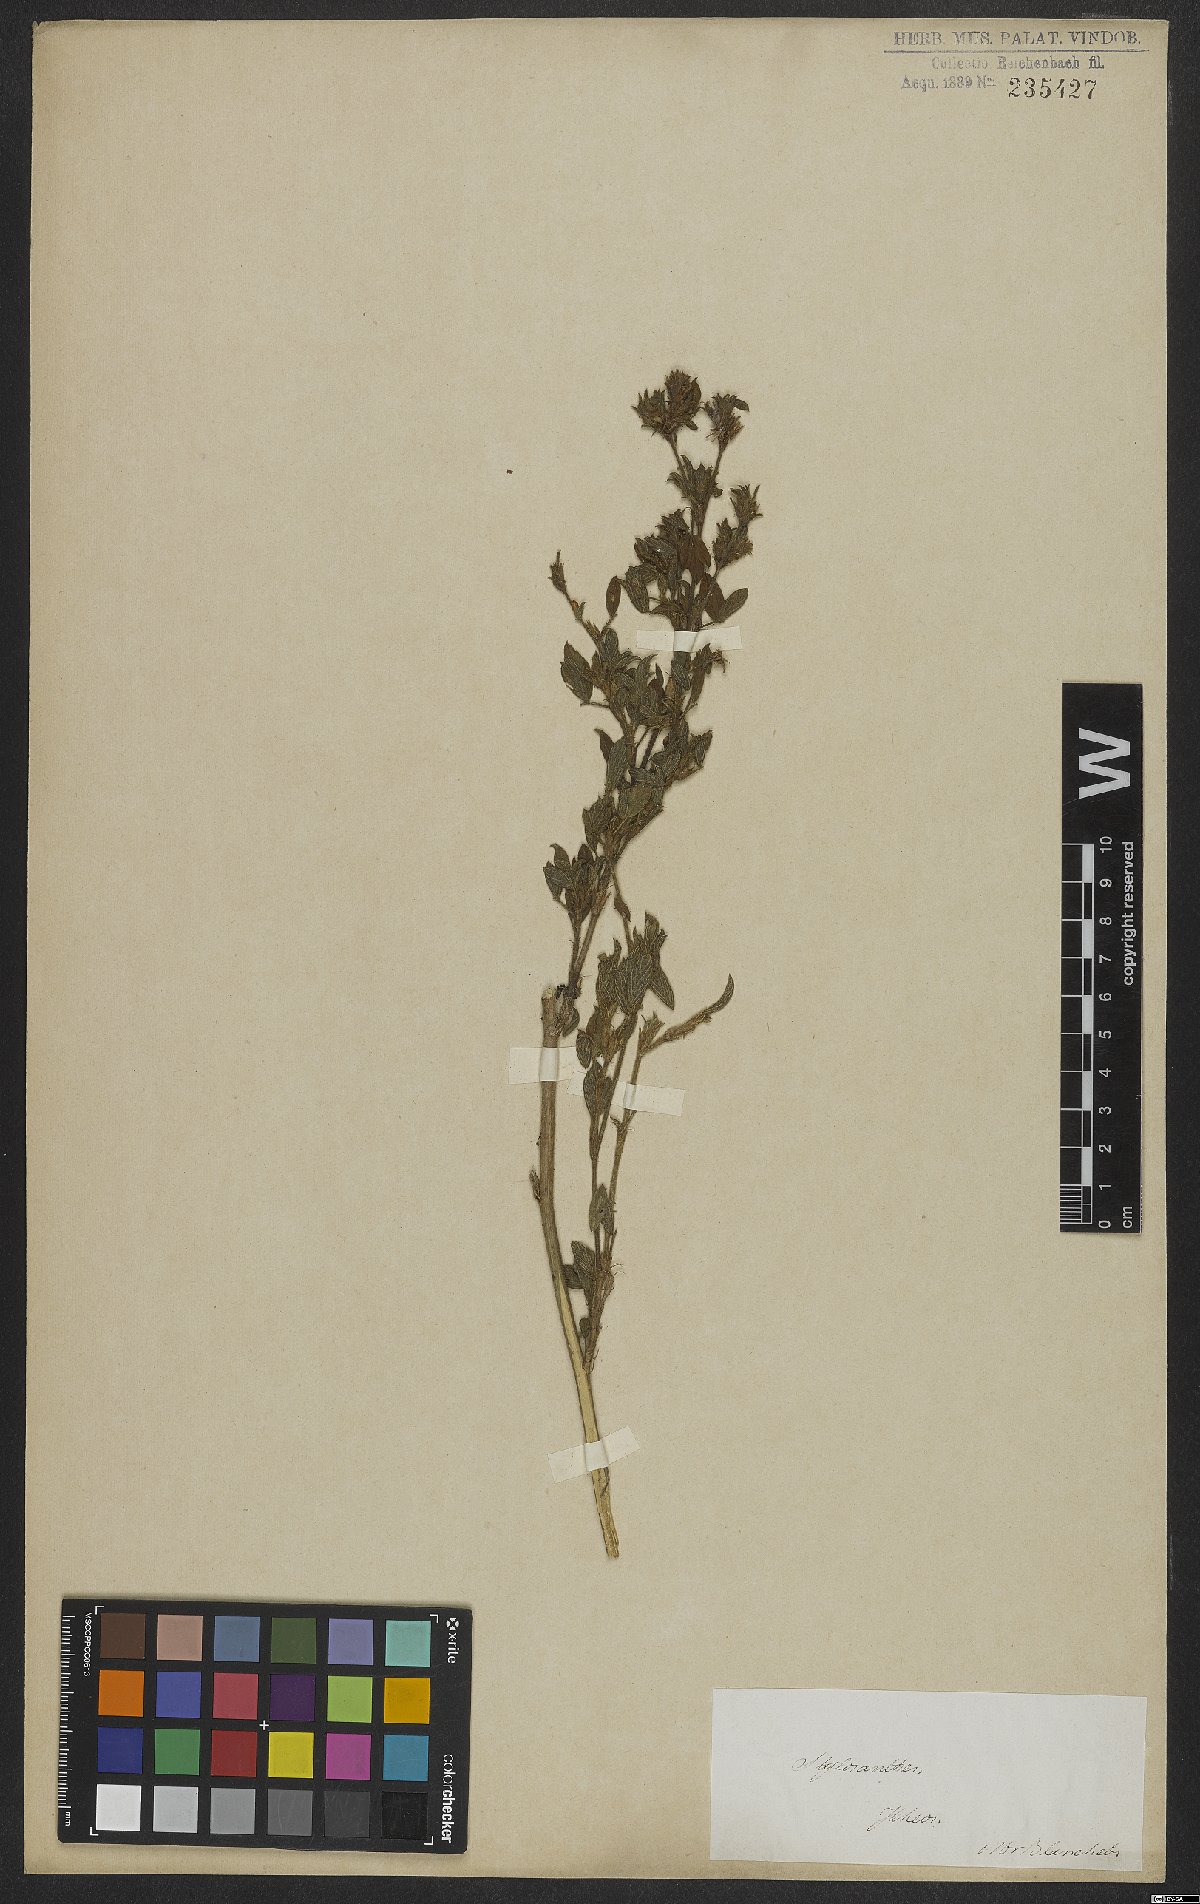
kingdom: Plantae
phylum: Tracheophyta
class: Magnoliopsida
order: Fabales
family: Fabaceae
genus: Stylosanthes
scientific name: Stylosanthes
